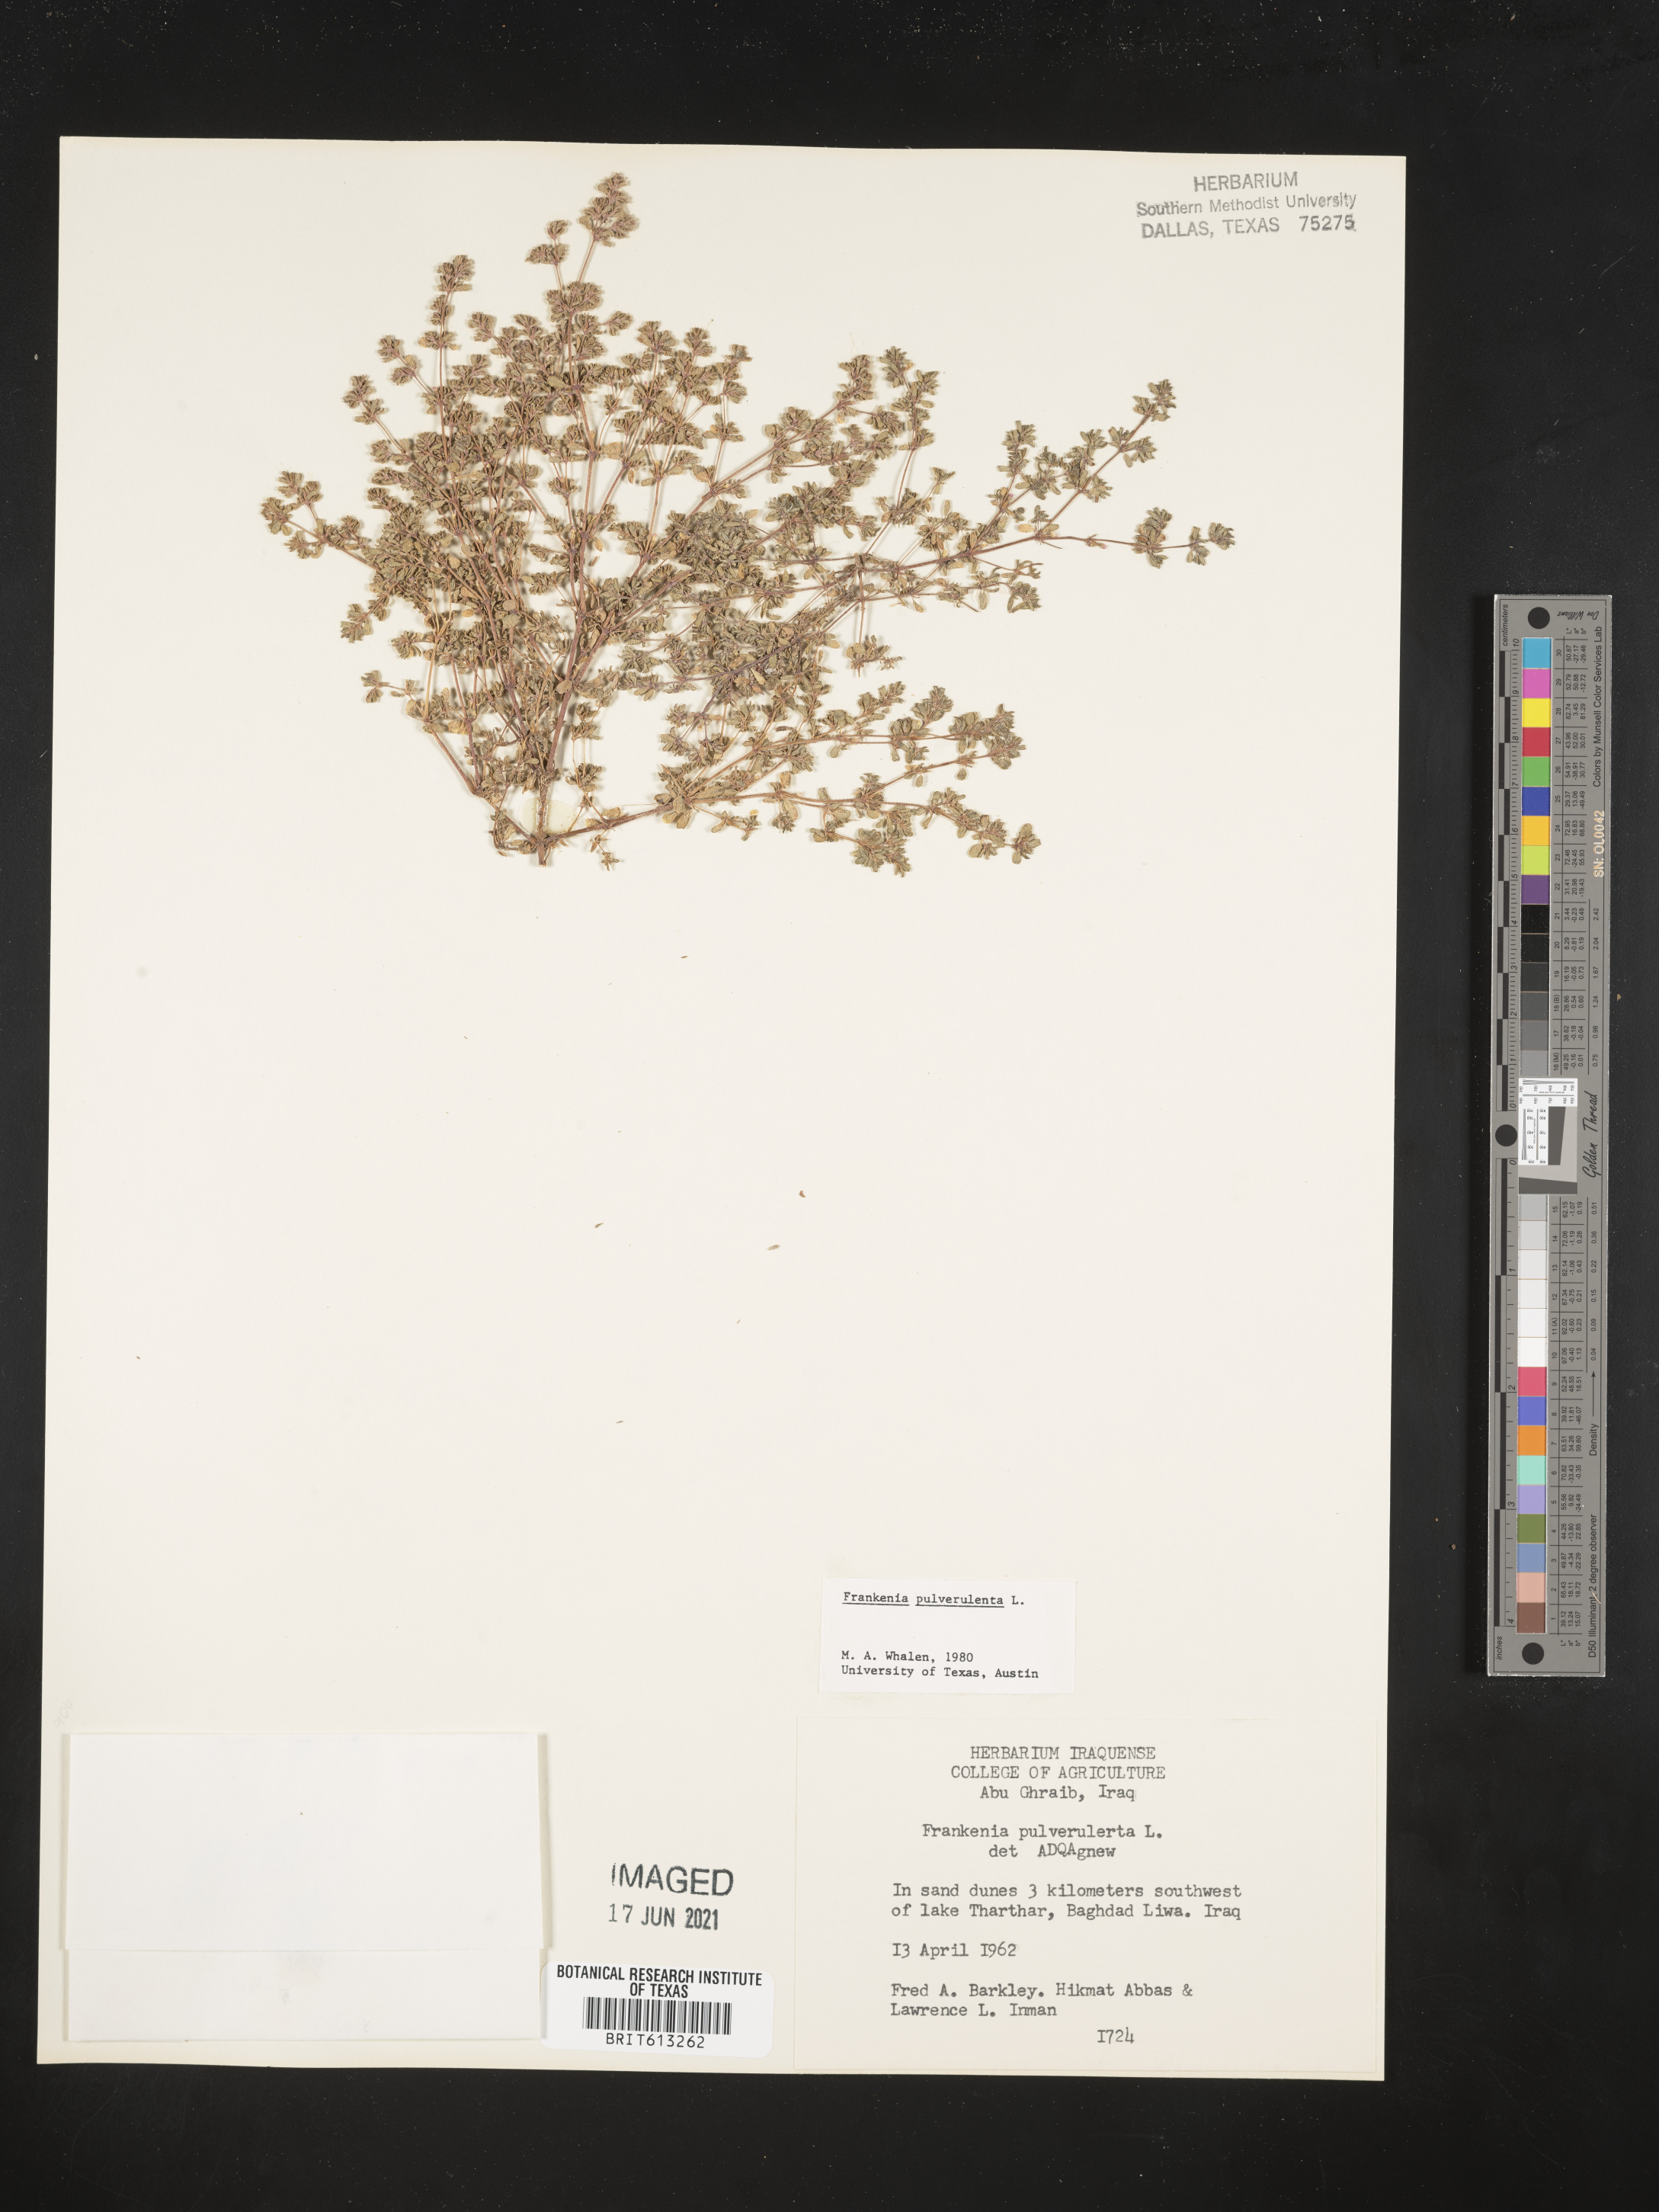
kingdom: Plantae
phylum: Tracheophyta
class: Magnoliopsida
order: Caryophyllales
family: Frankeniaceae
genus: Frankenia
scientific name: Frankenia pulverulenta
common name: European seaheath
